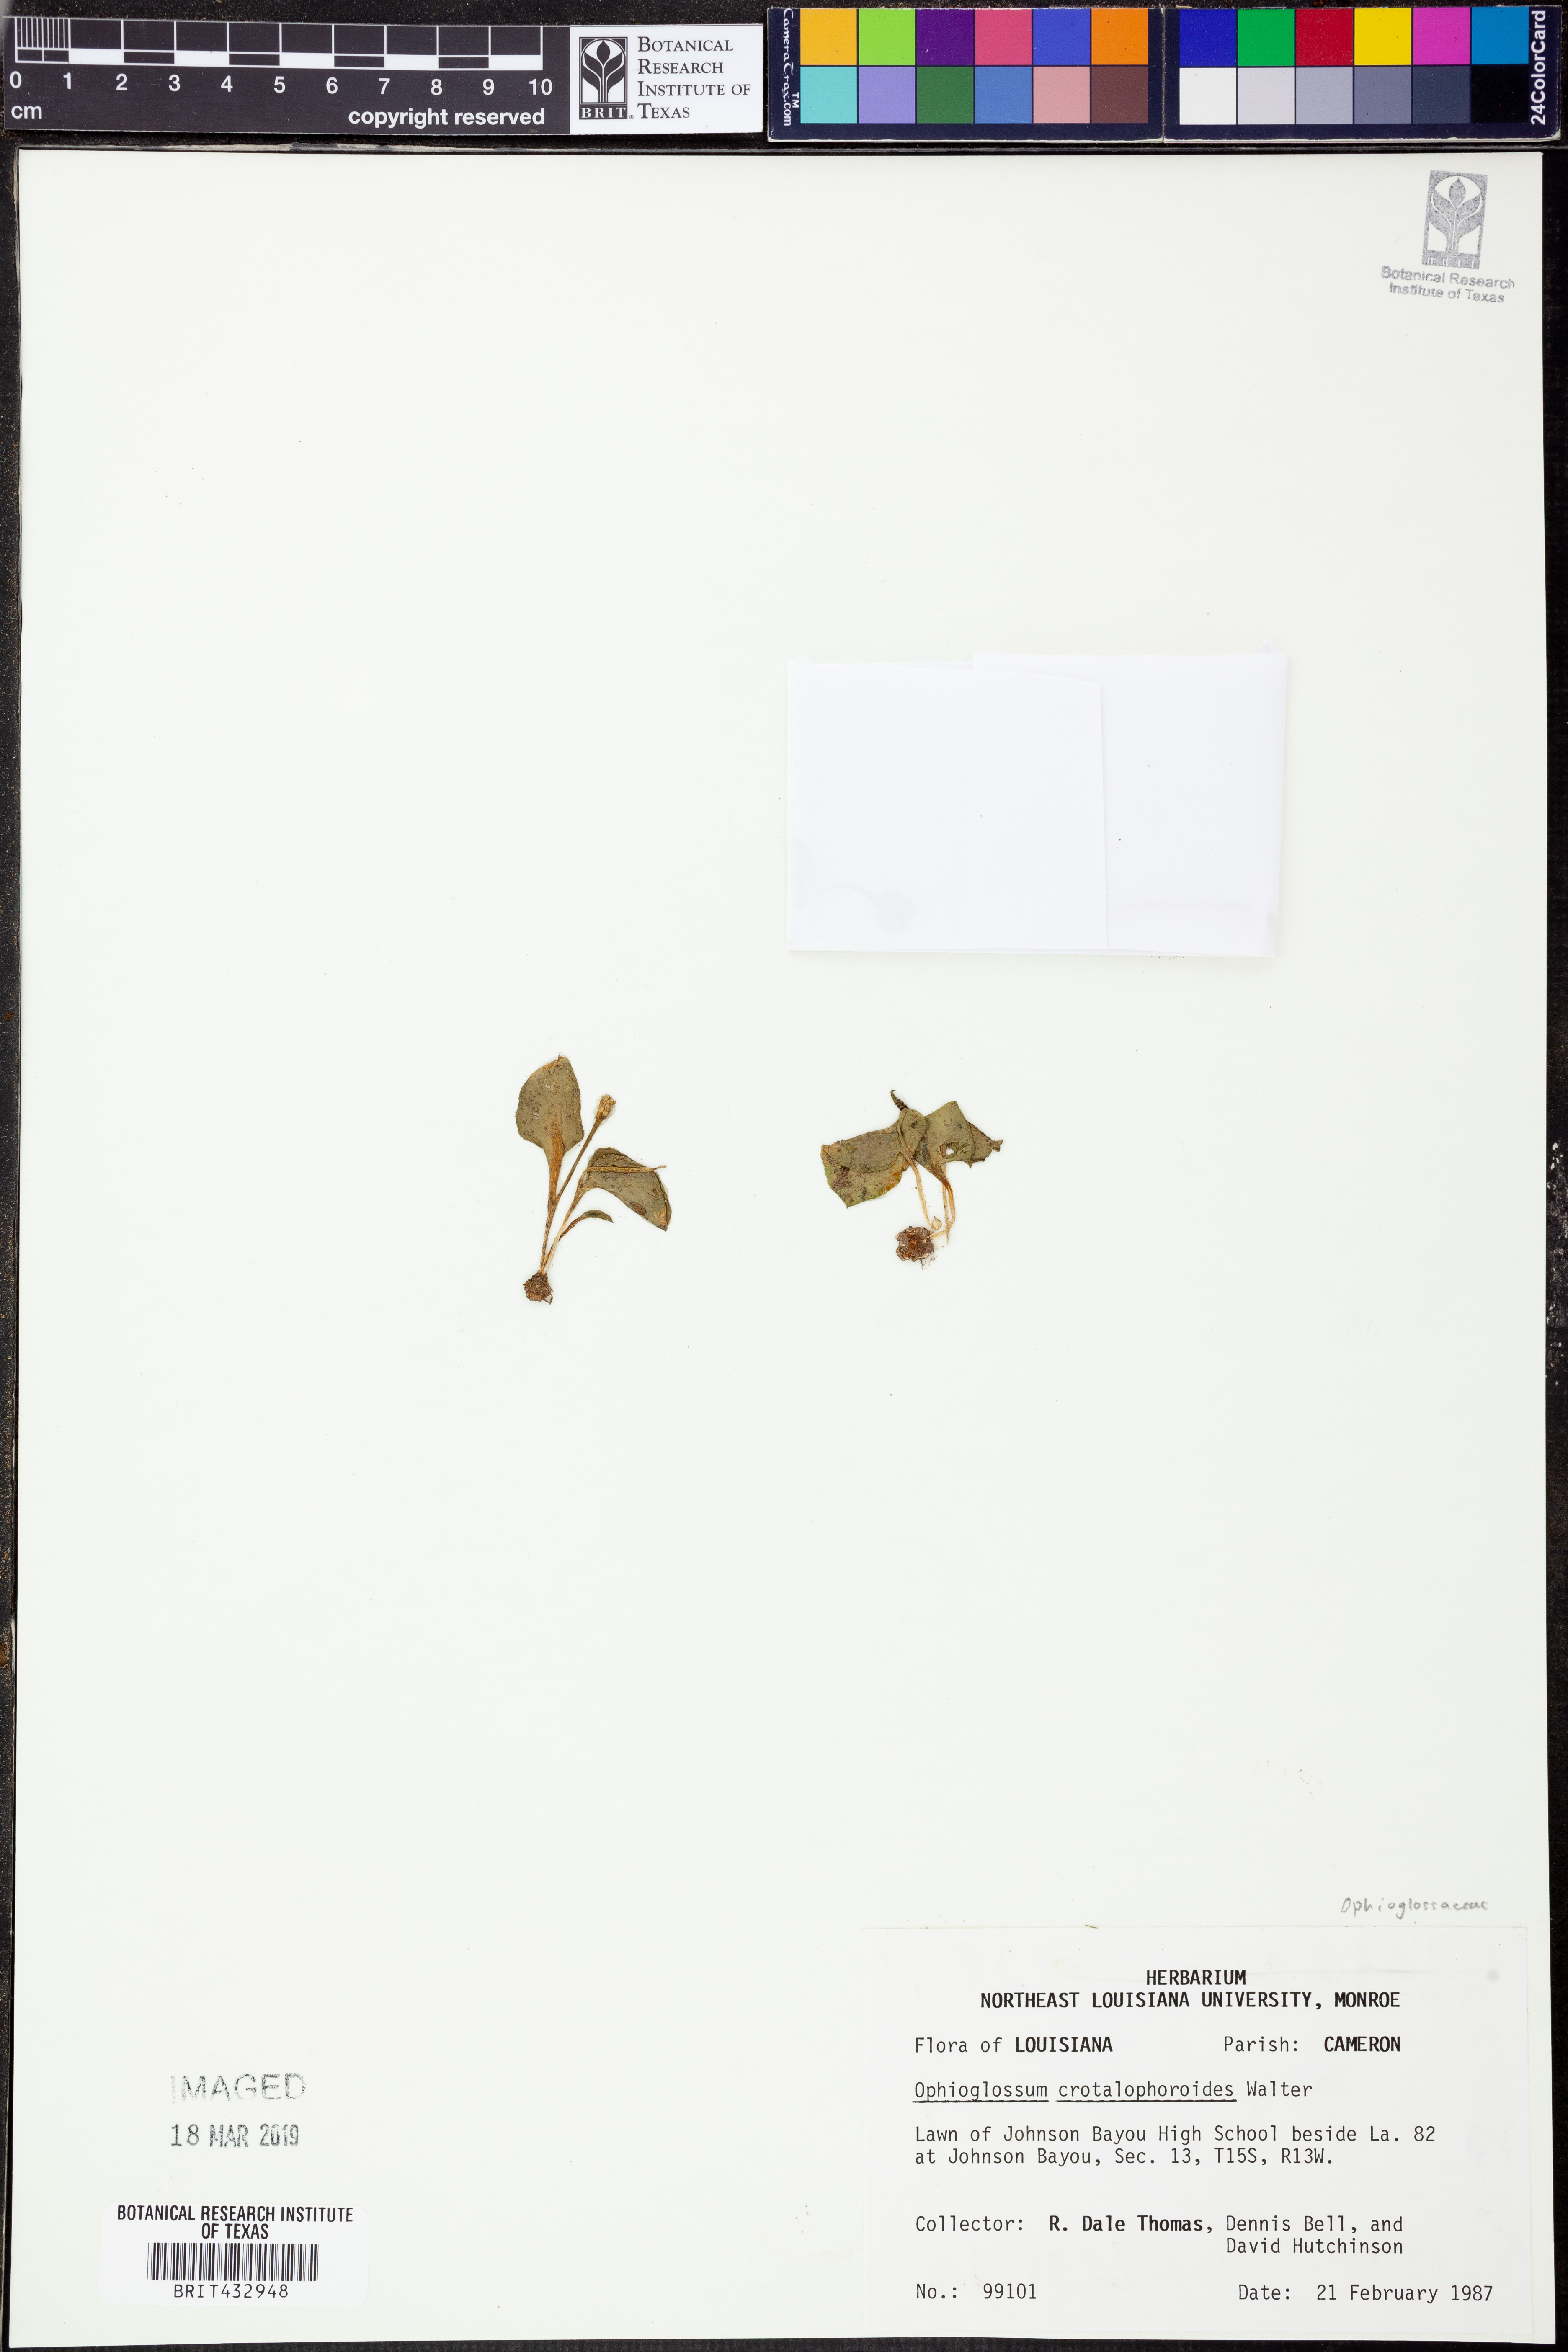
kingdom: Plantae
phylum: Tracheophyta
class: Polypodiopsida
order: Ophioglossales
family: Ophioglossaceae
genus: Ophioglossum
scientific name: Ophioglossum crotalophoroides
